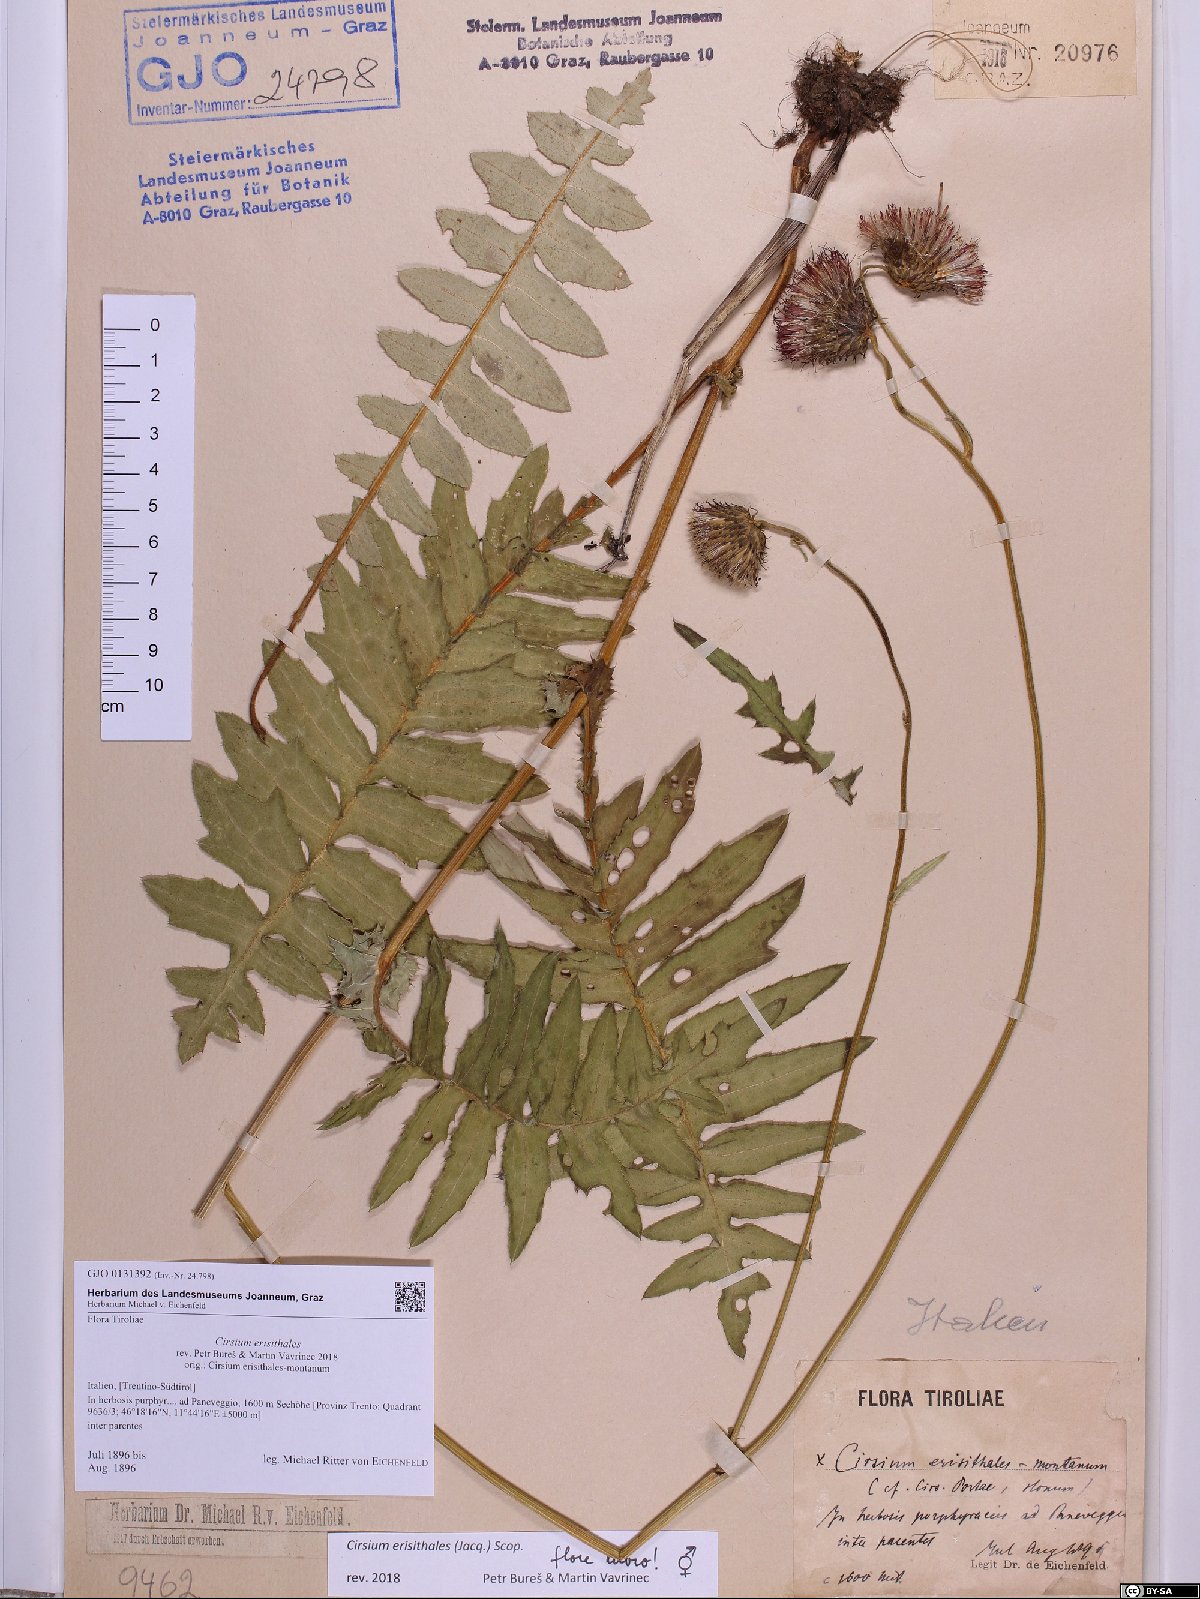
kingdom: Plantae
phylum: Tracheophyta
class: Magnoliopsida
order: Asterales
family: Asteraceae
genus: Cirsium
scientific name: Cirsium erisithales
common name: Yellow thistle
